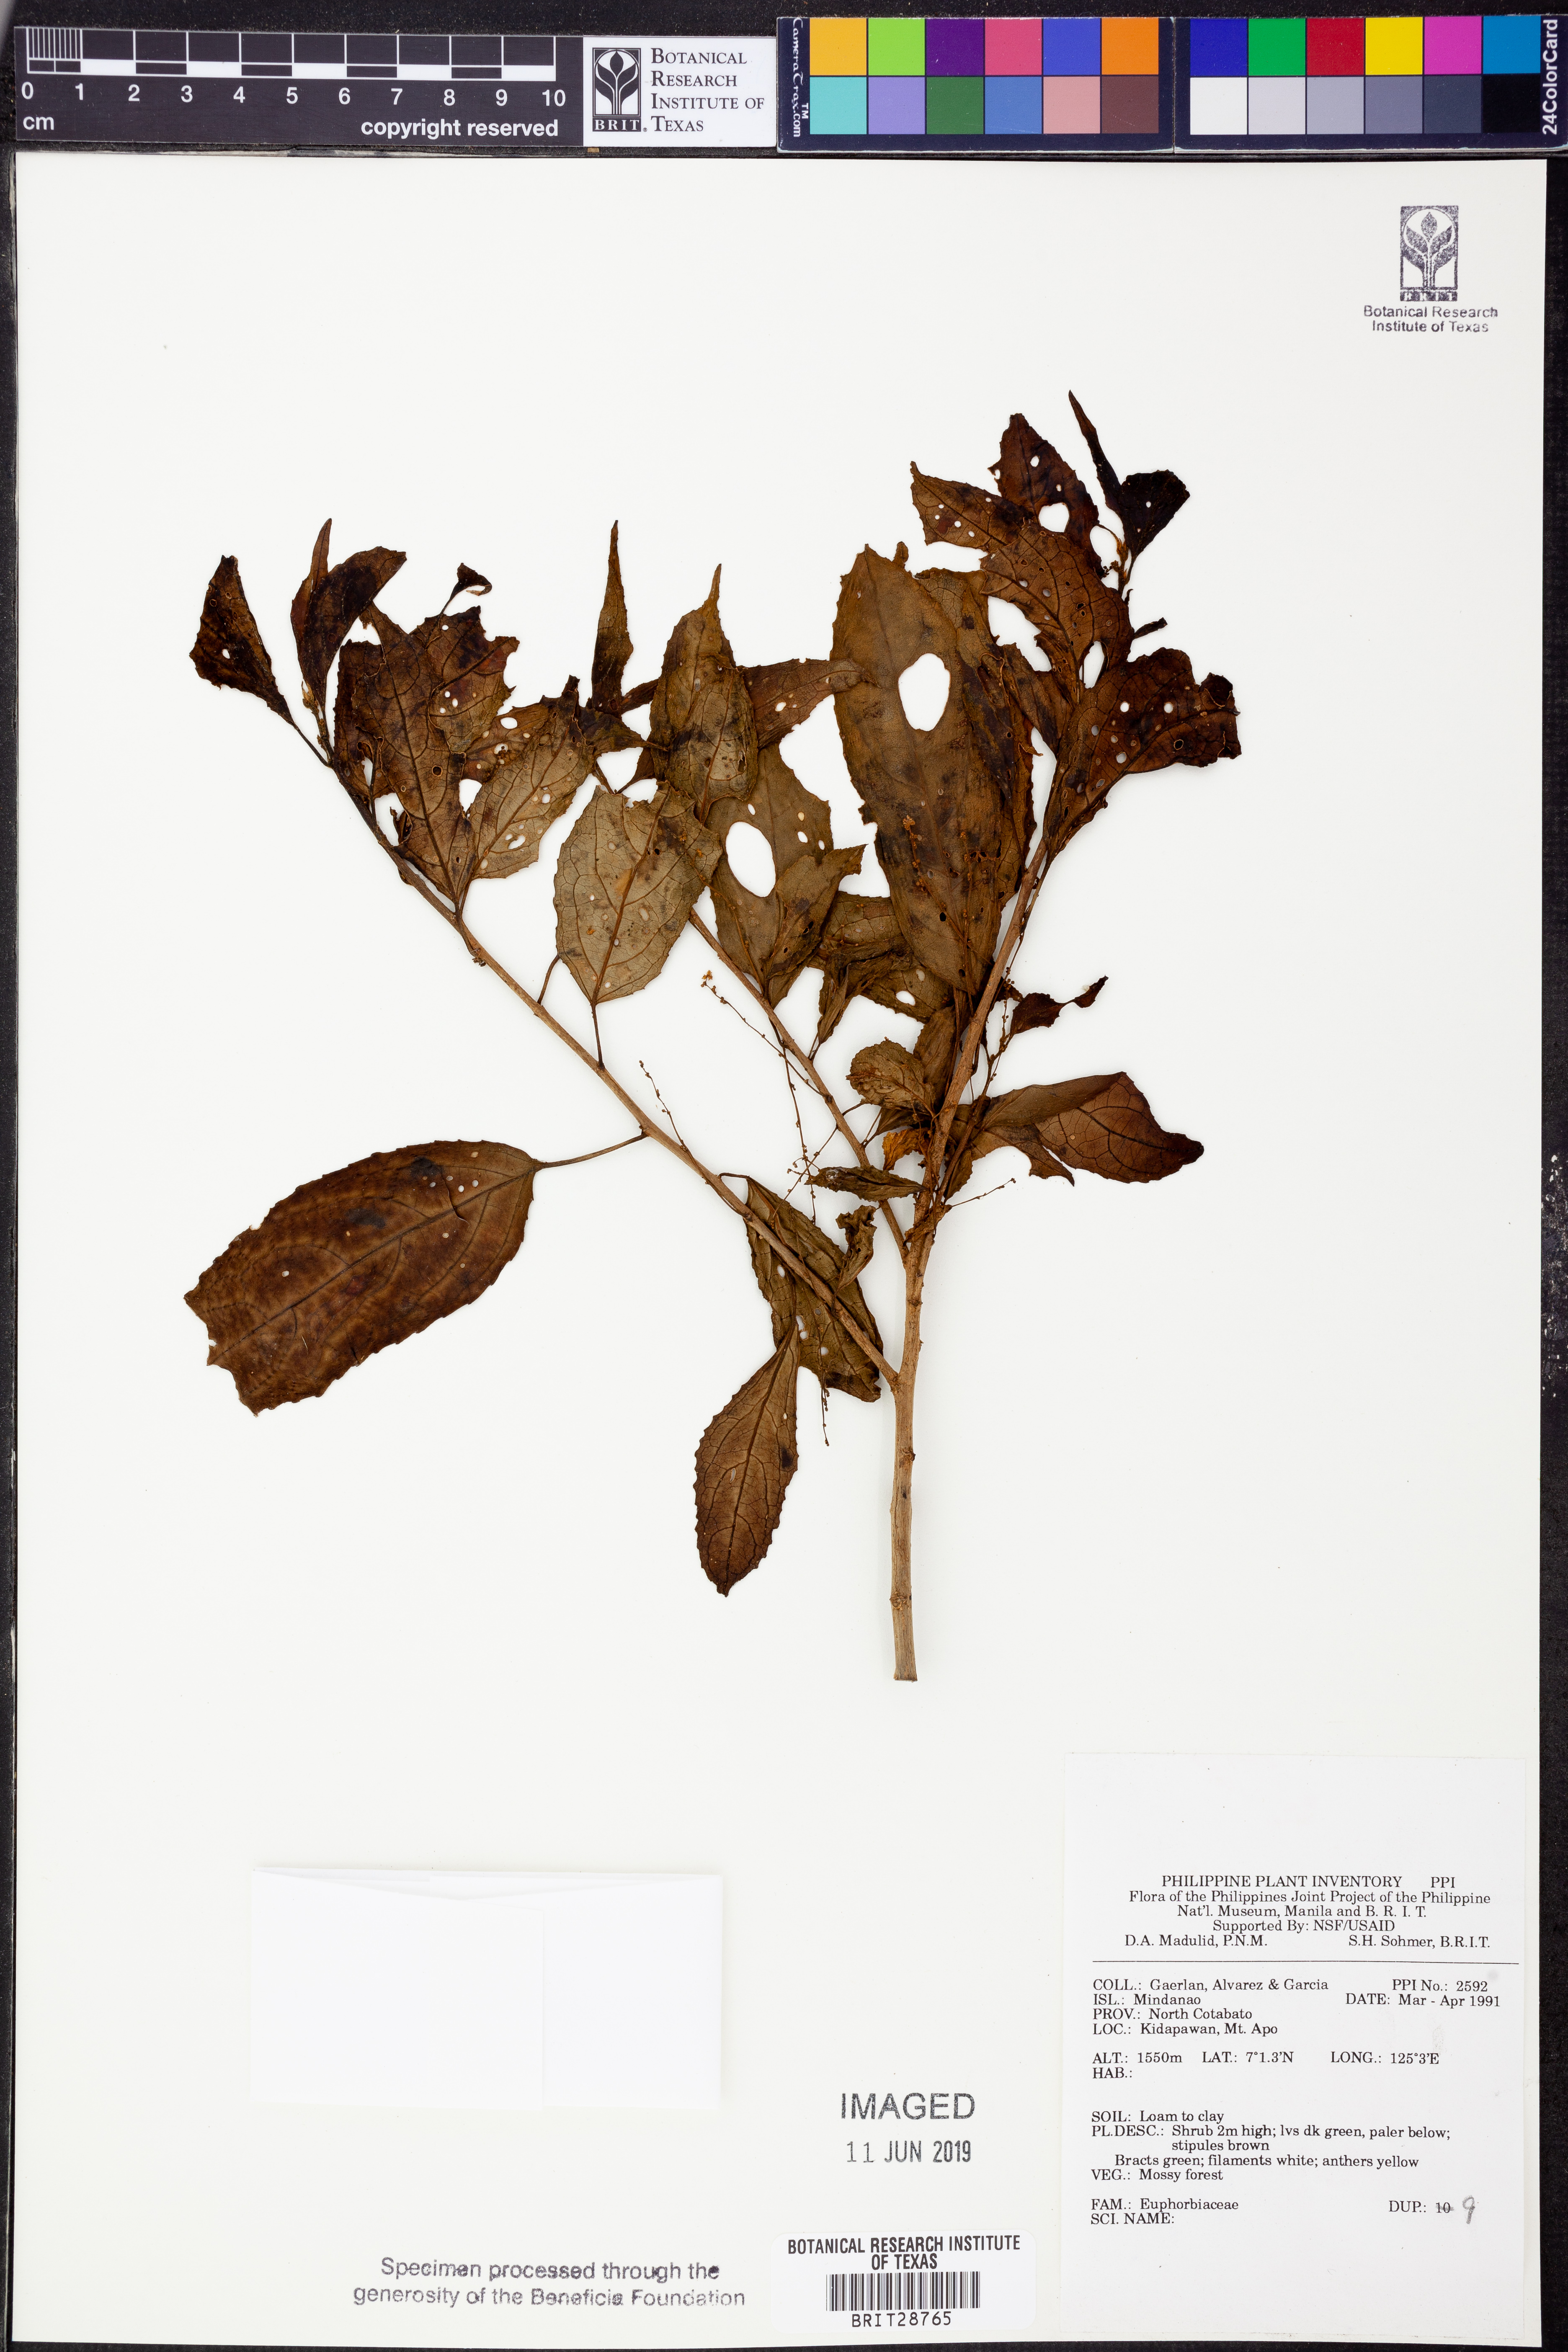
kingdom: Plantae
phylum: Tracheophyta
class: Magnoliopsida
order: Malpighiales
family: Euphorbiaceae
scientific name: Euphorbiaceae
